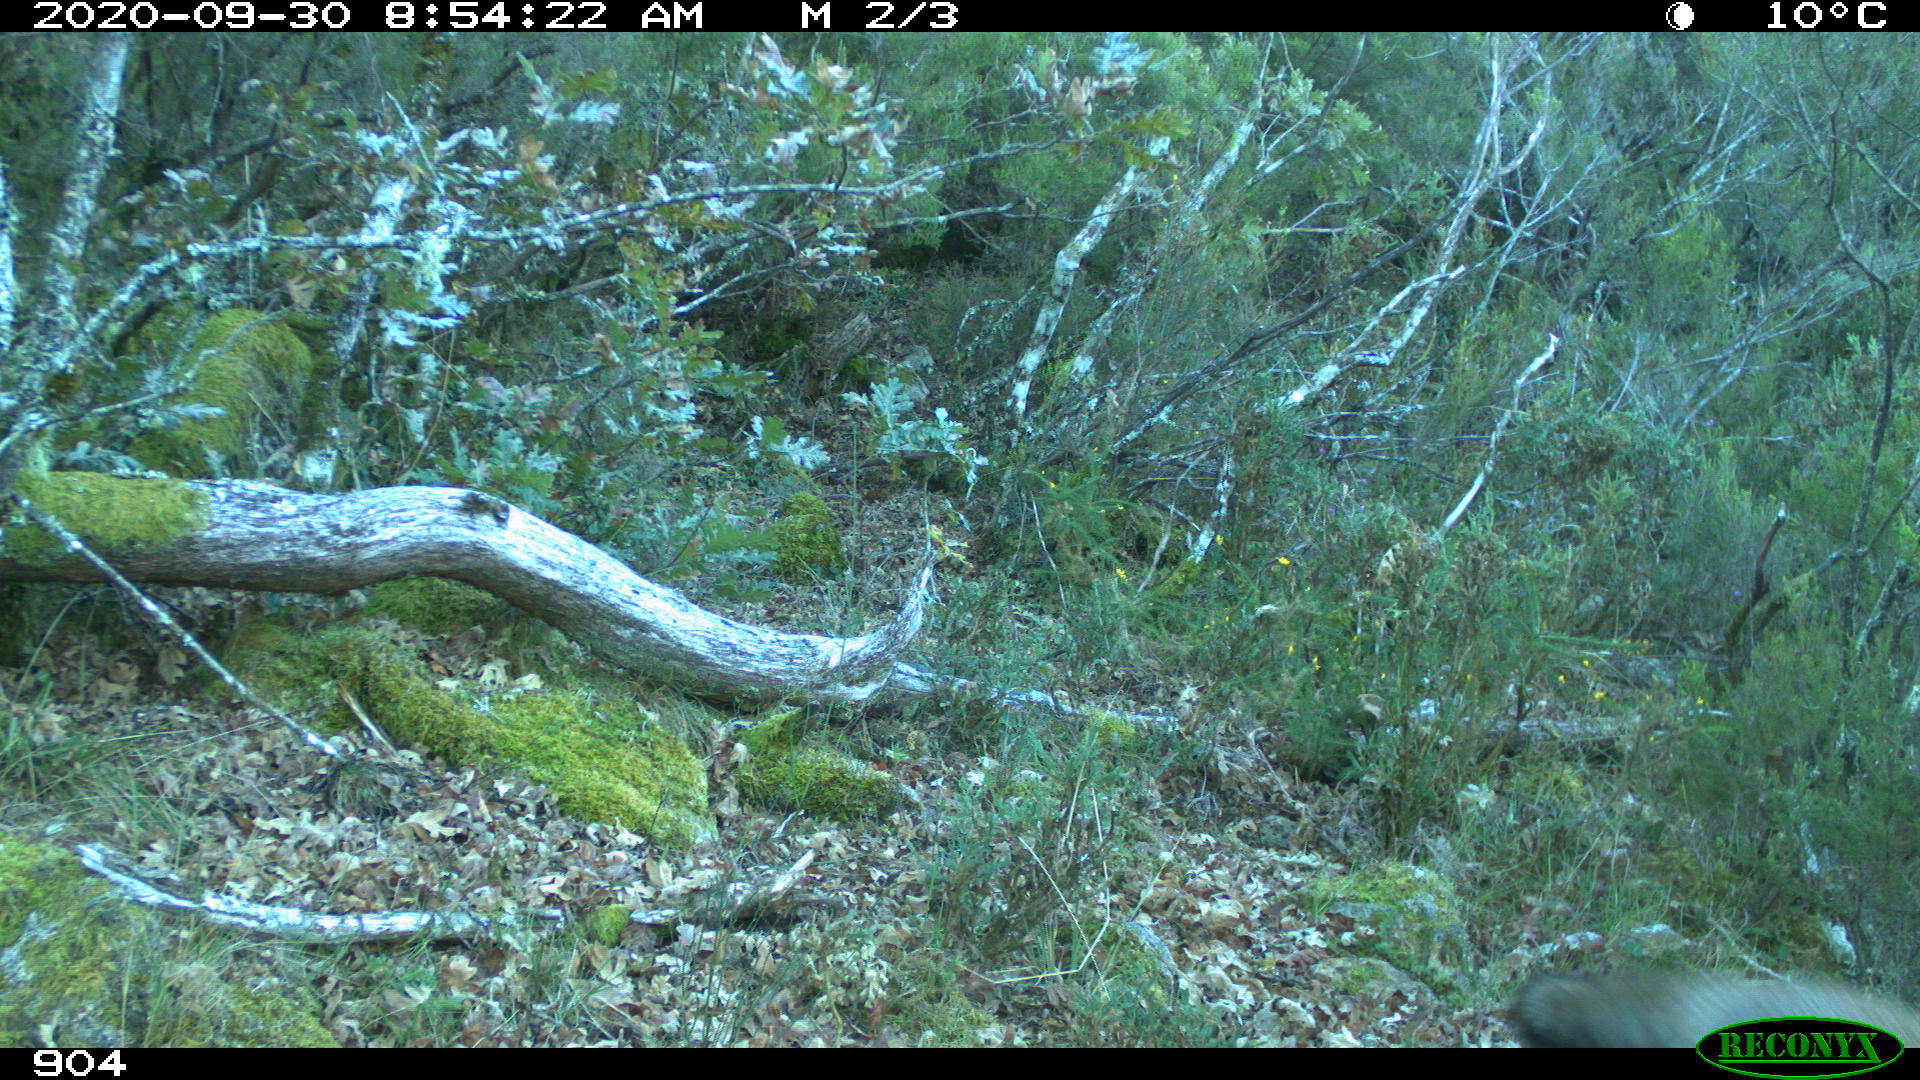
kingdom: Animalia
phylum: Chordata
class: Mammalia
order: Carnivora
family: Canidae
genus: Vulpes
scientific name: Vulpes vulpes
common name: Red fox
